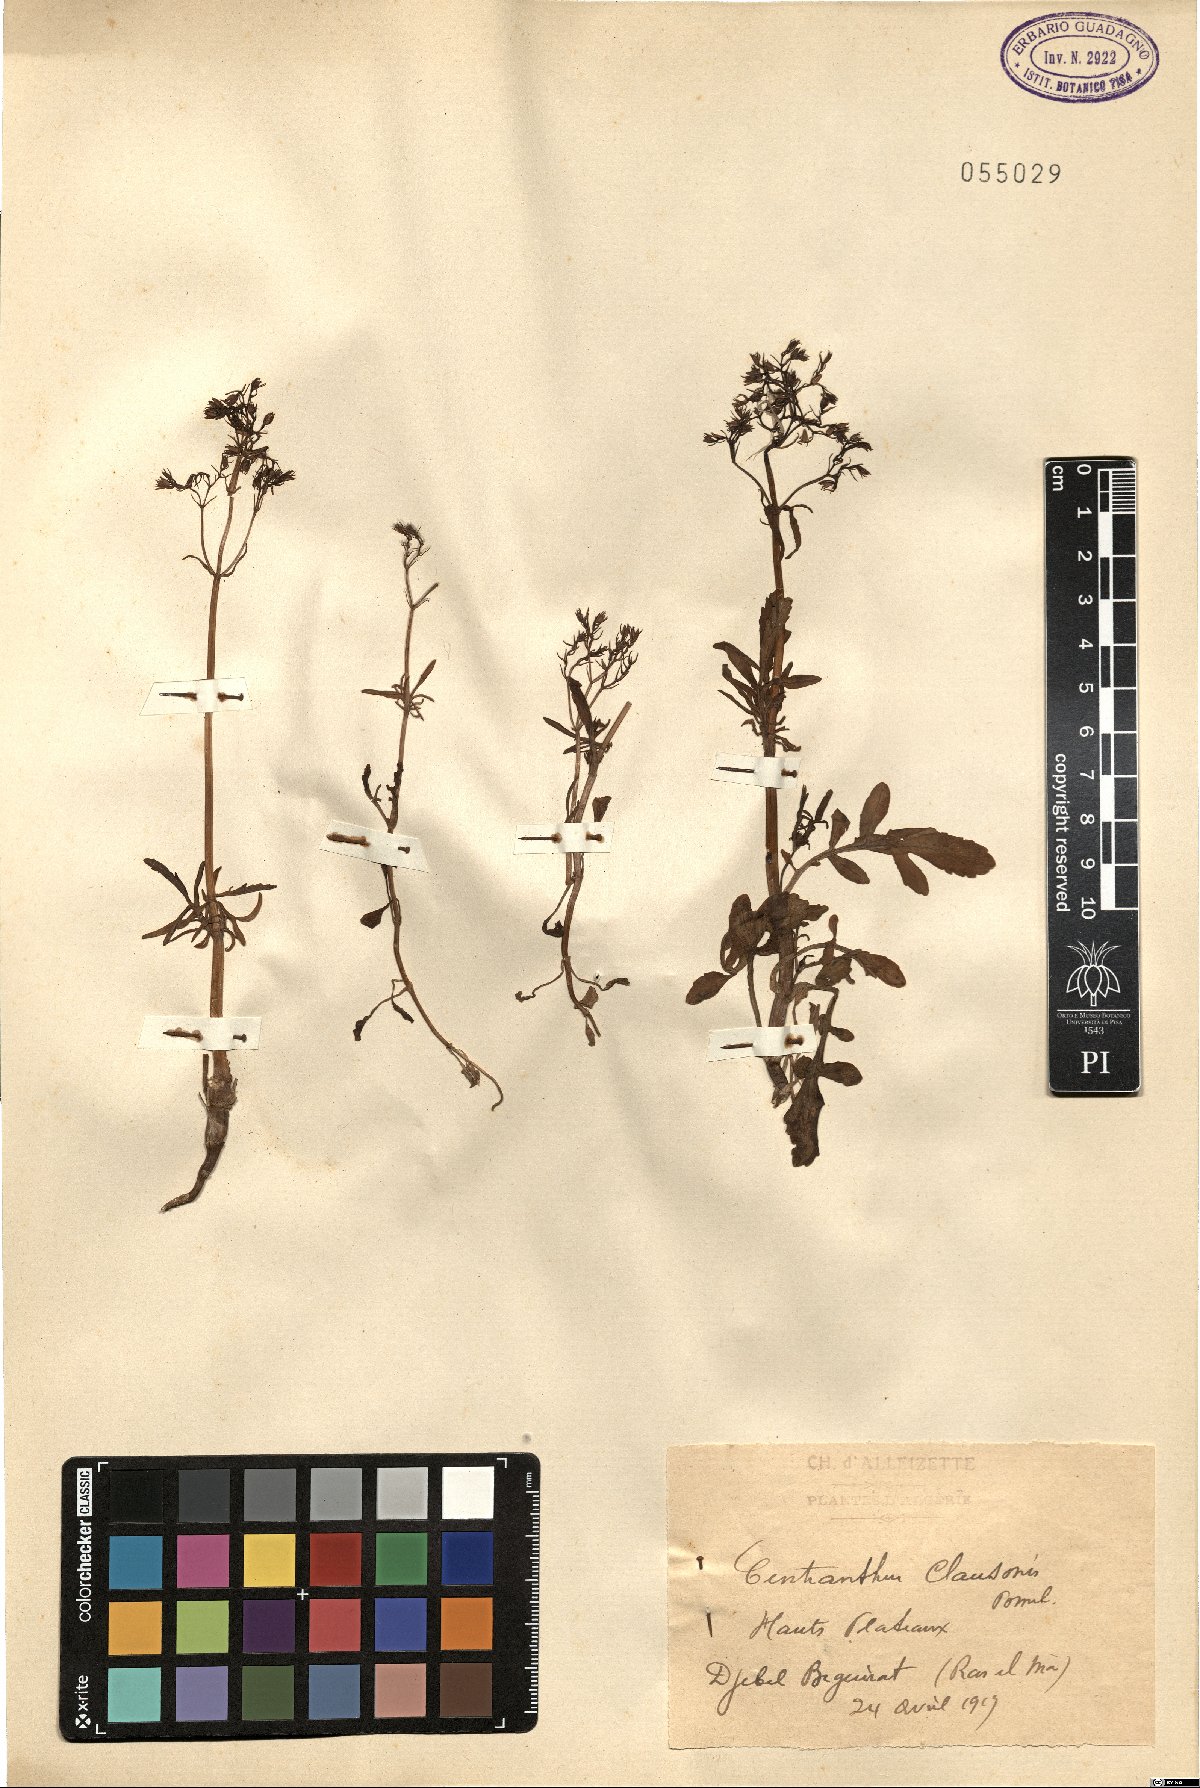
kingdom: Plantae
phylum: Tracheophyta
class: Magnoliopsida
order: Dipsacales
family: Caprifoliaceae
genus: Centranthus
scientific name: Centranthus calcitrapae
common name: Annual valerian
